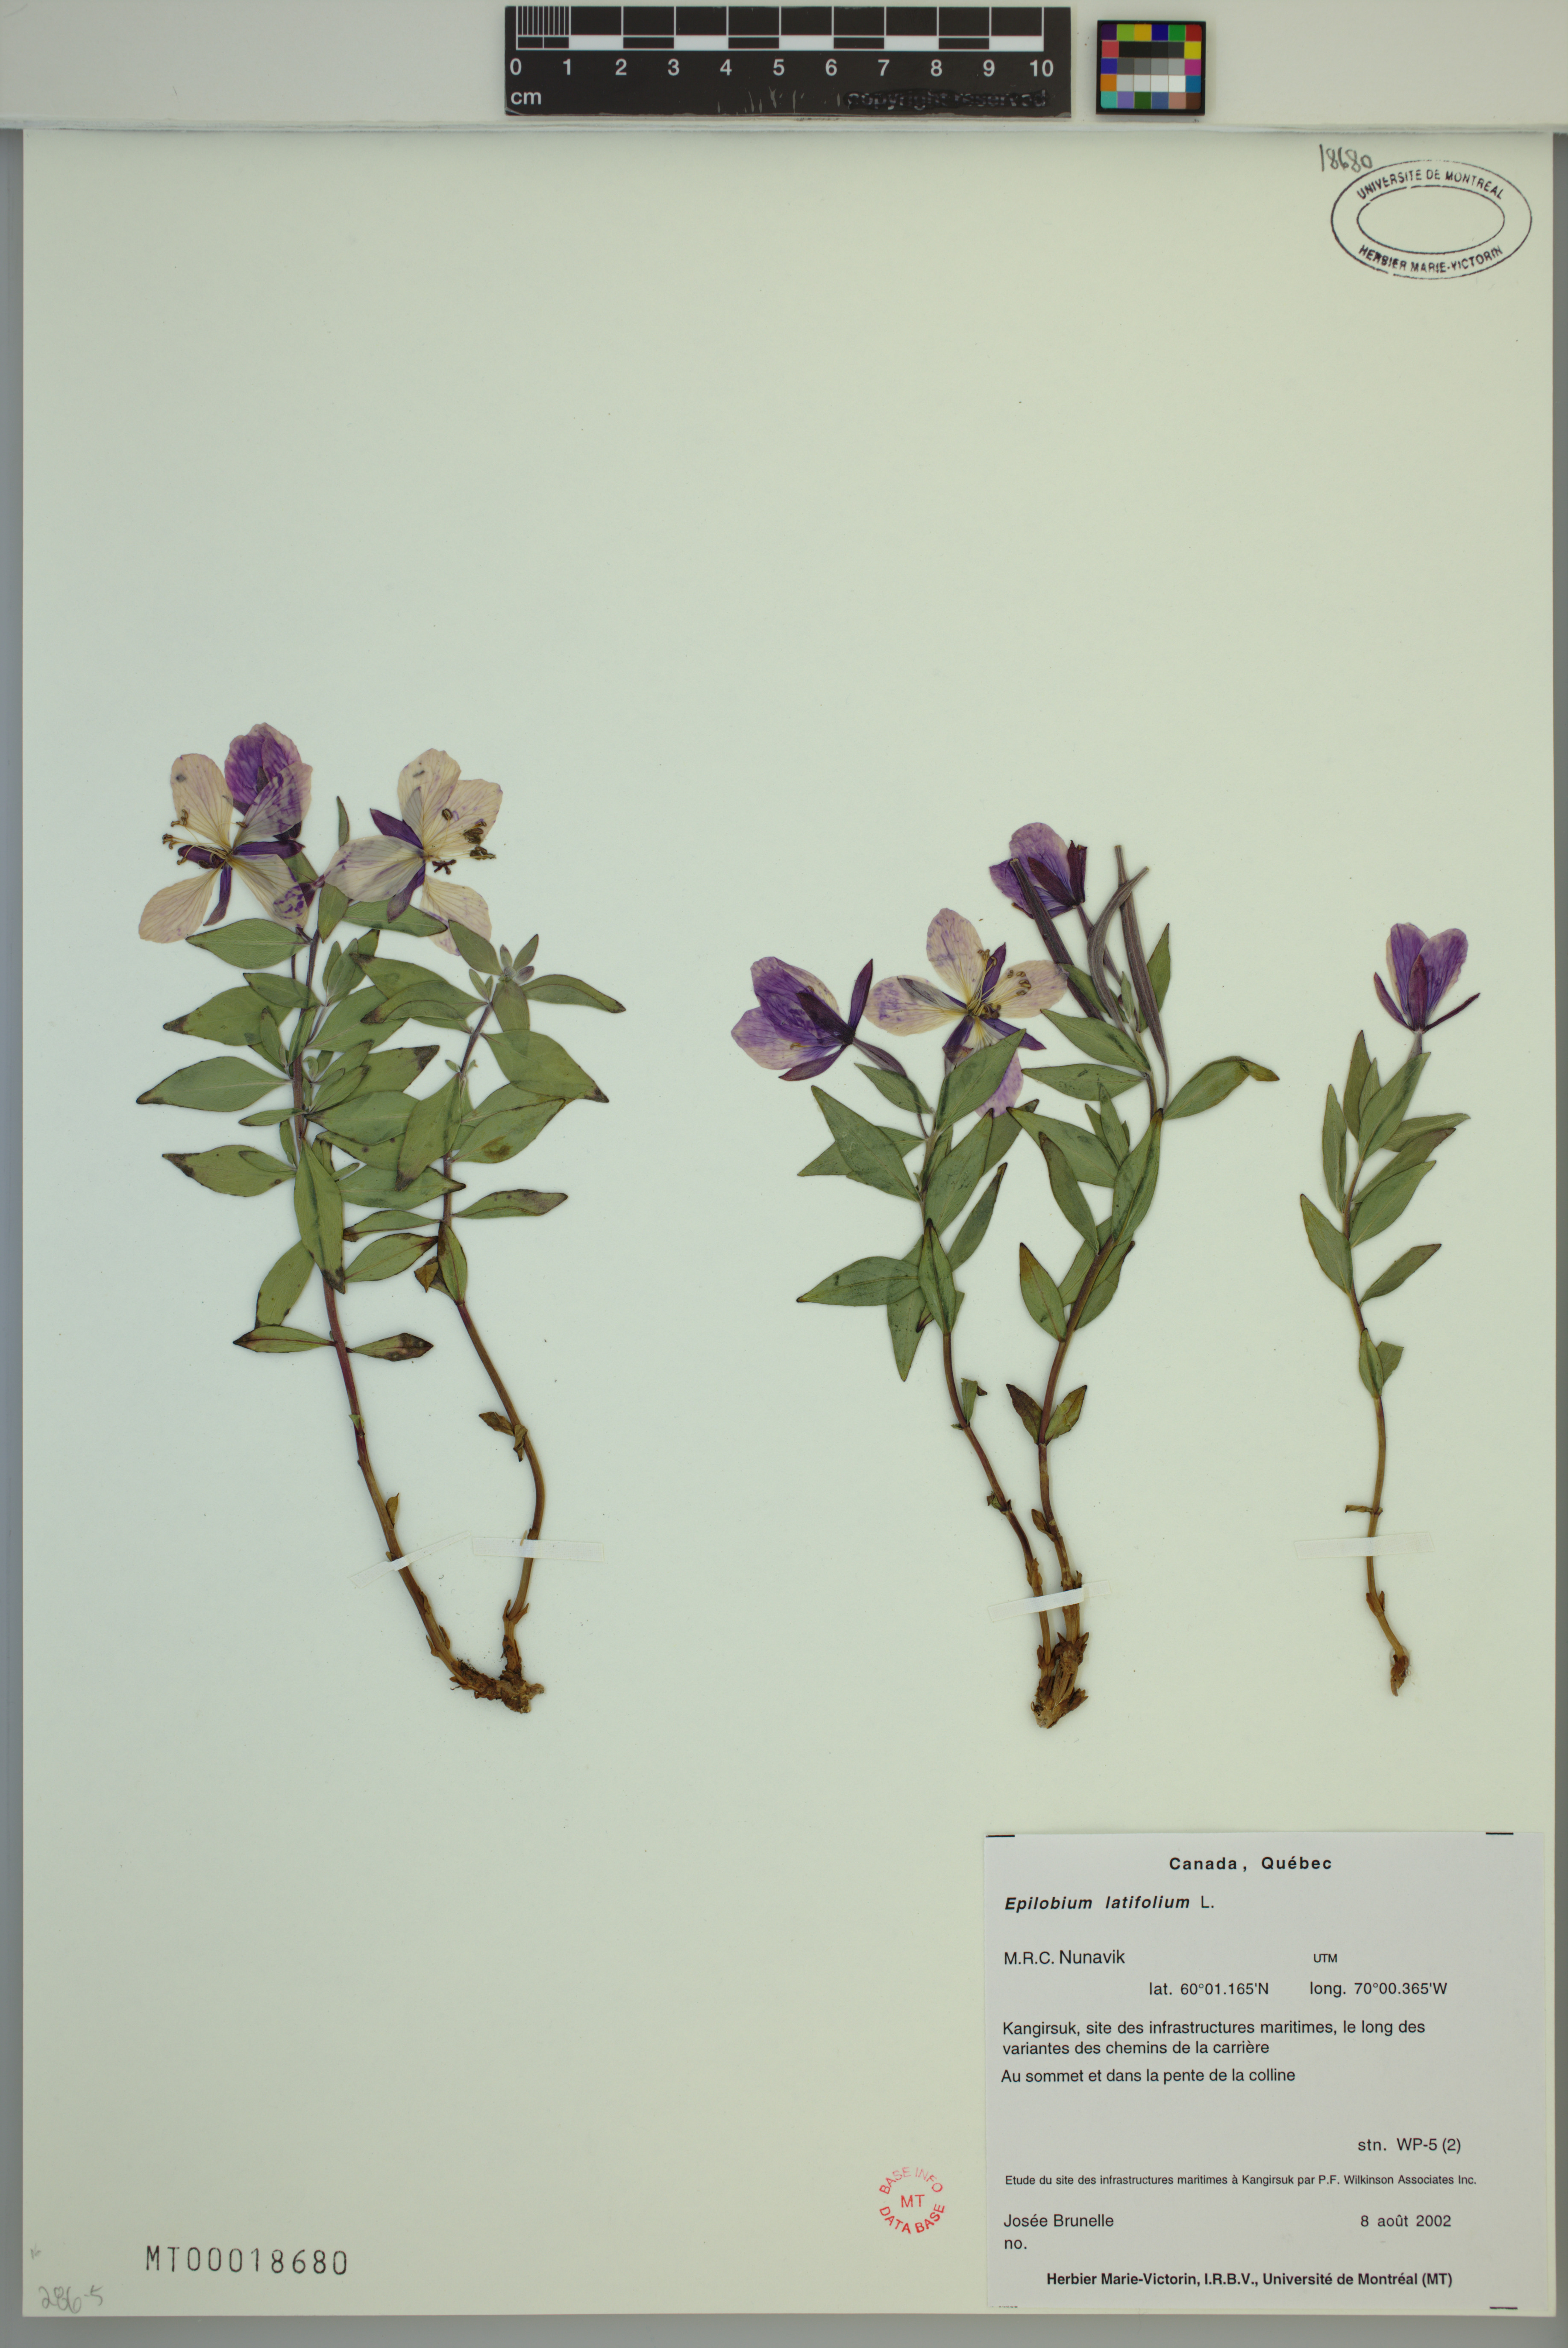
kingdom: Plantae
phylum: Tracheophyta
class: Magnoliopsida
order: Myrtales
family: Onagraceae
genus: Chamaenerion
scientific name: Chamaenerion latifolium
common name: Dwarf fireweed
